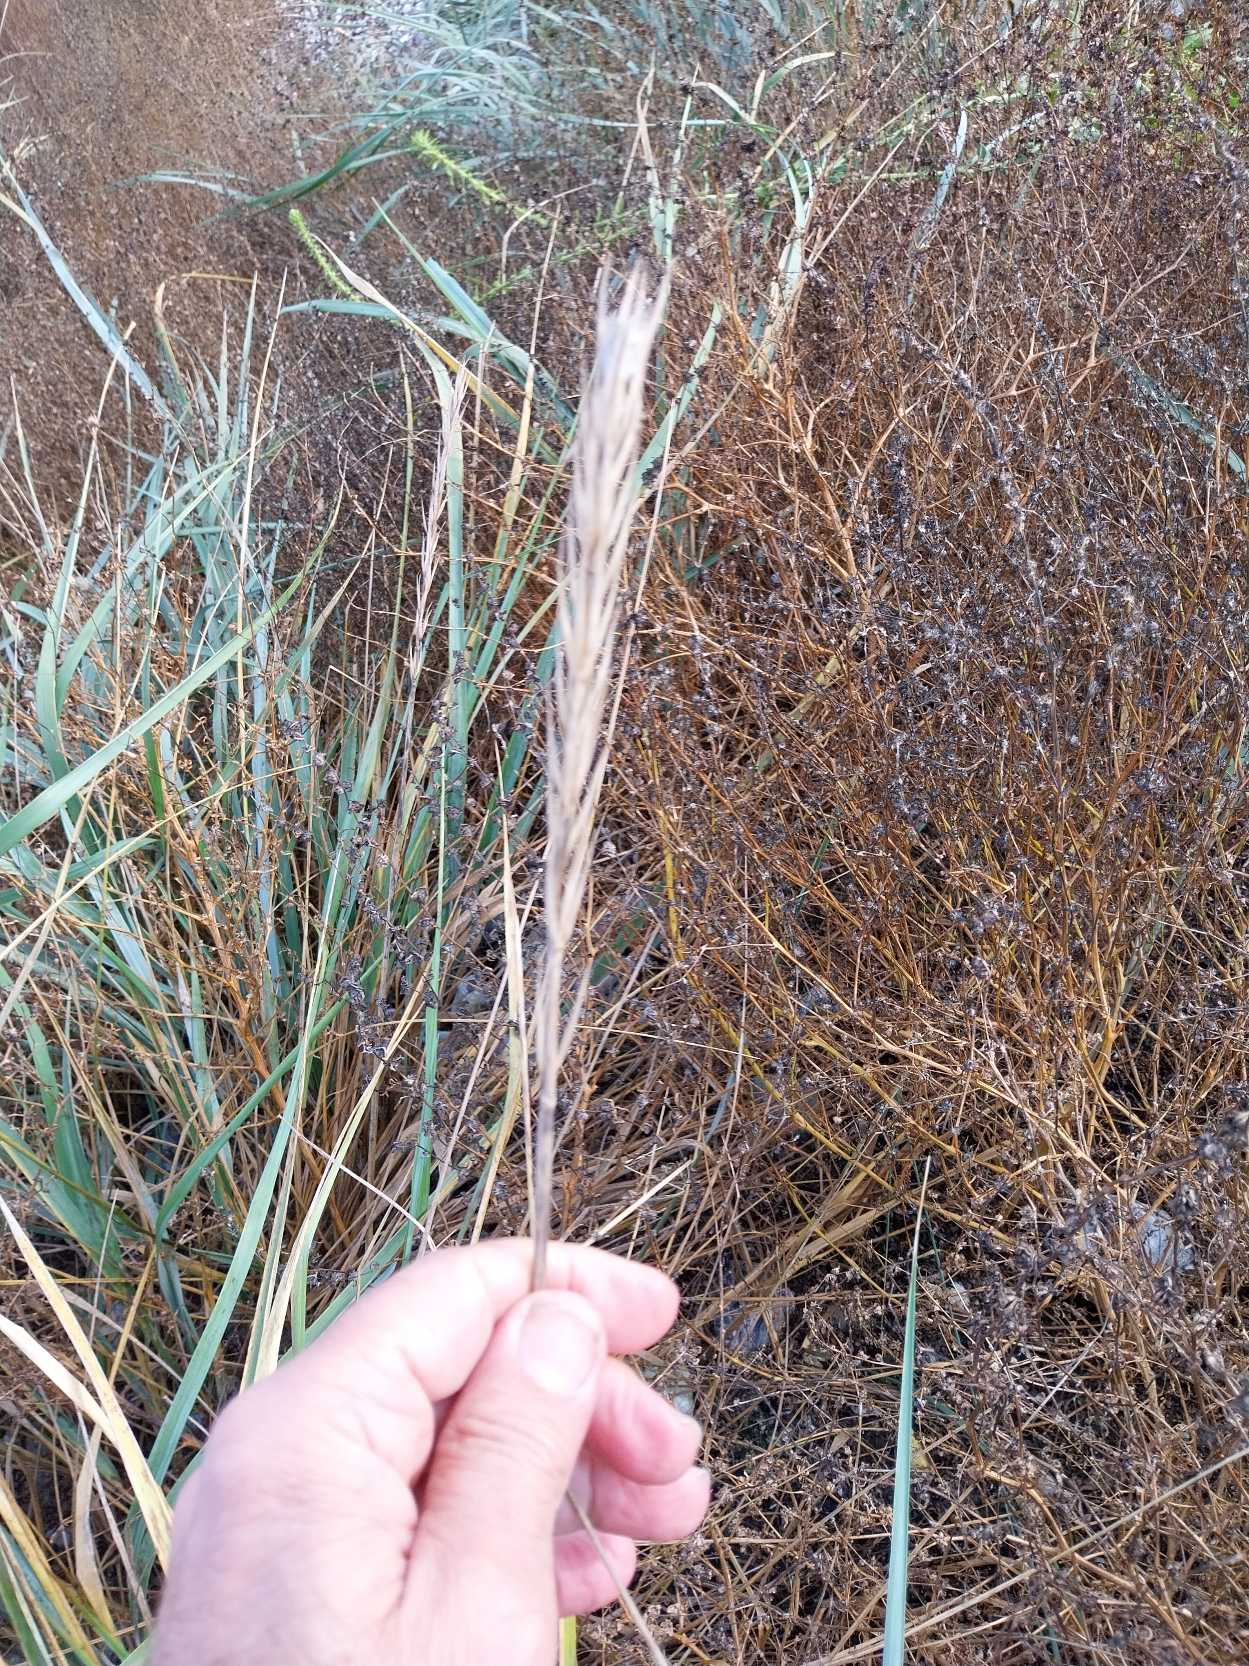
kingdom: Plantae
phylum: Tracheophyta
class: Liliopsida
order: Poales
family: Poaceae
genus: Leymus
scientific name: Leymus arenarius
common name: Marehalm
